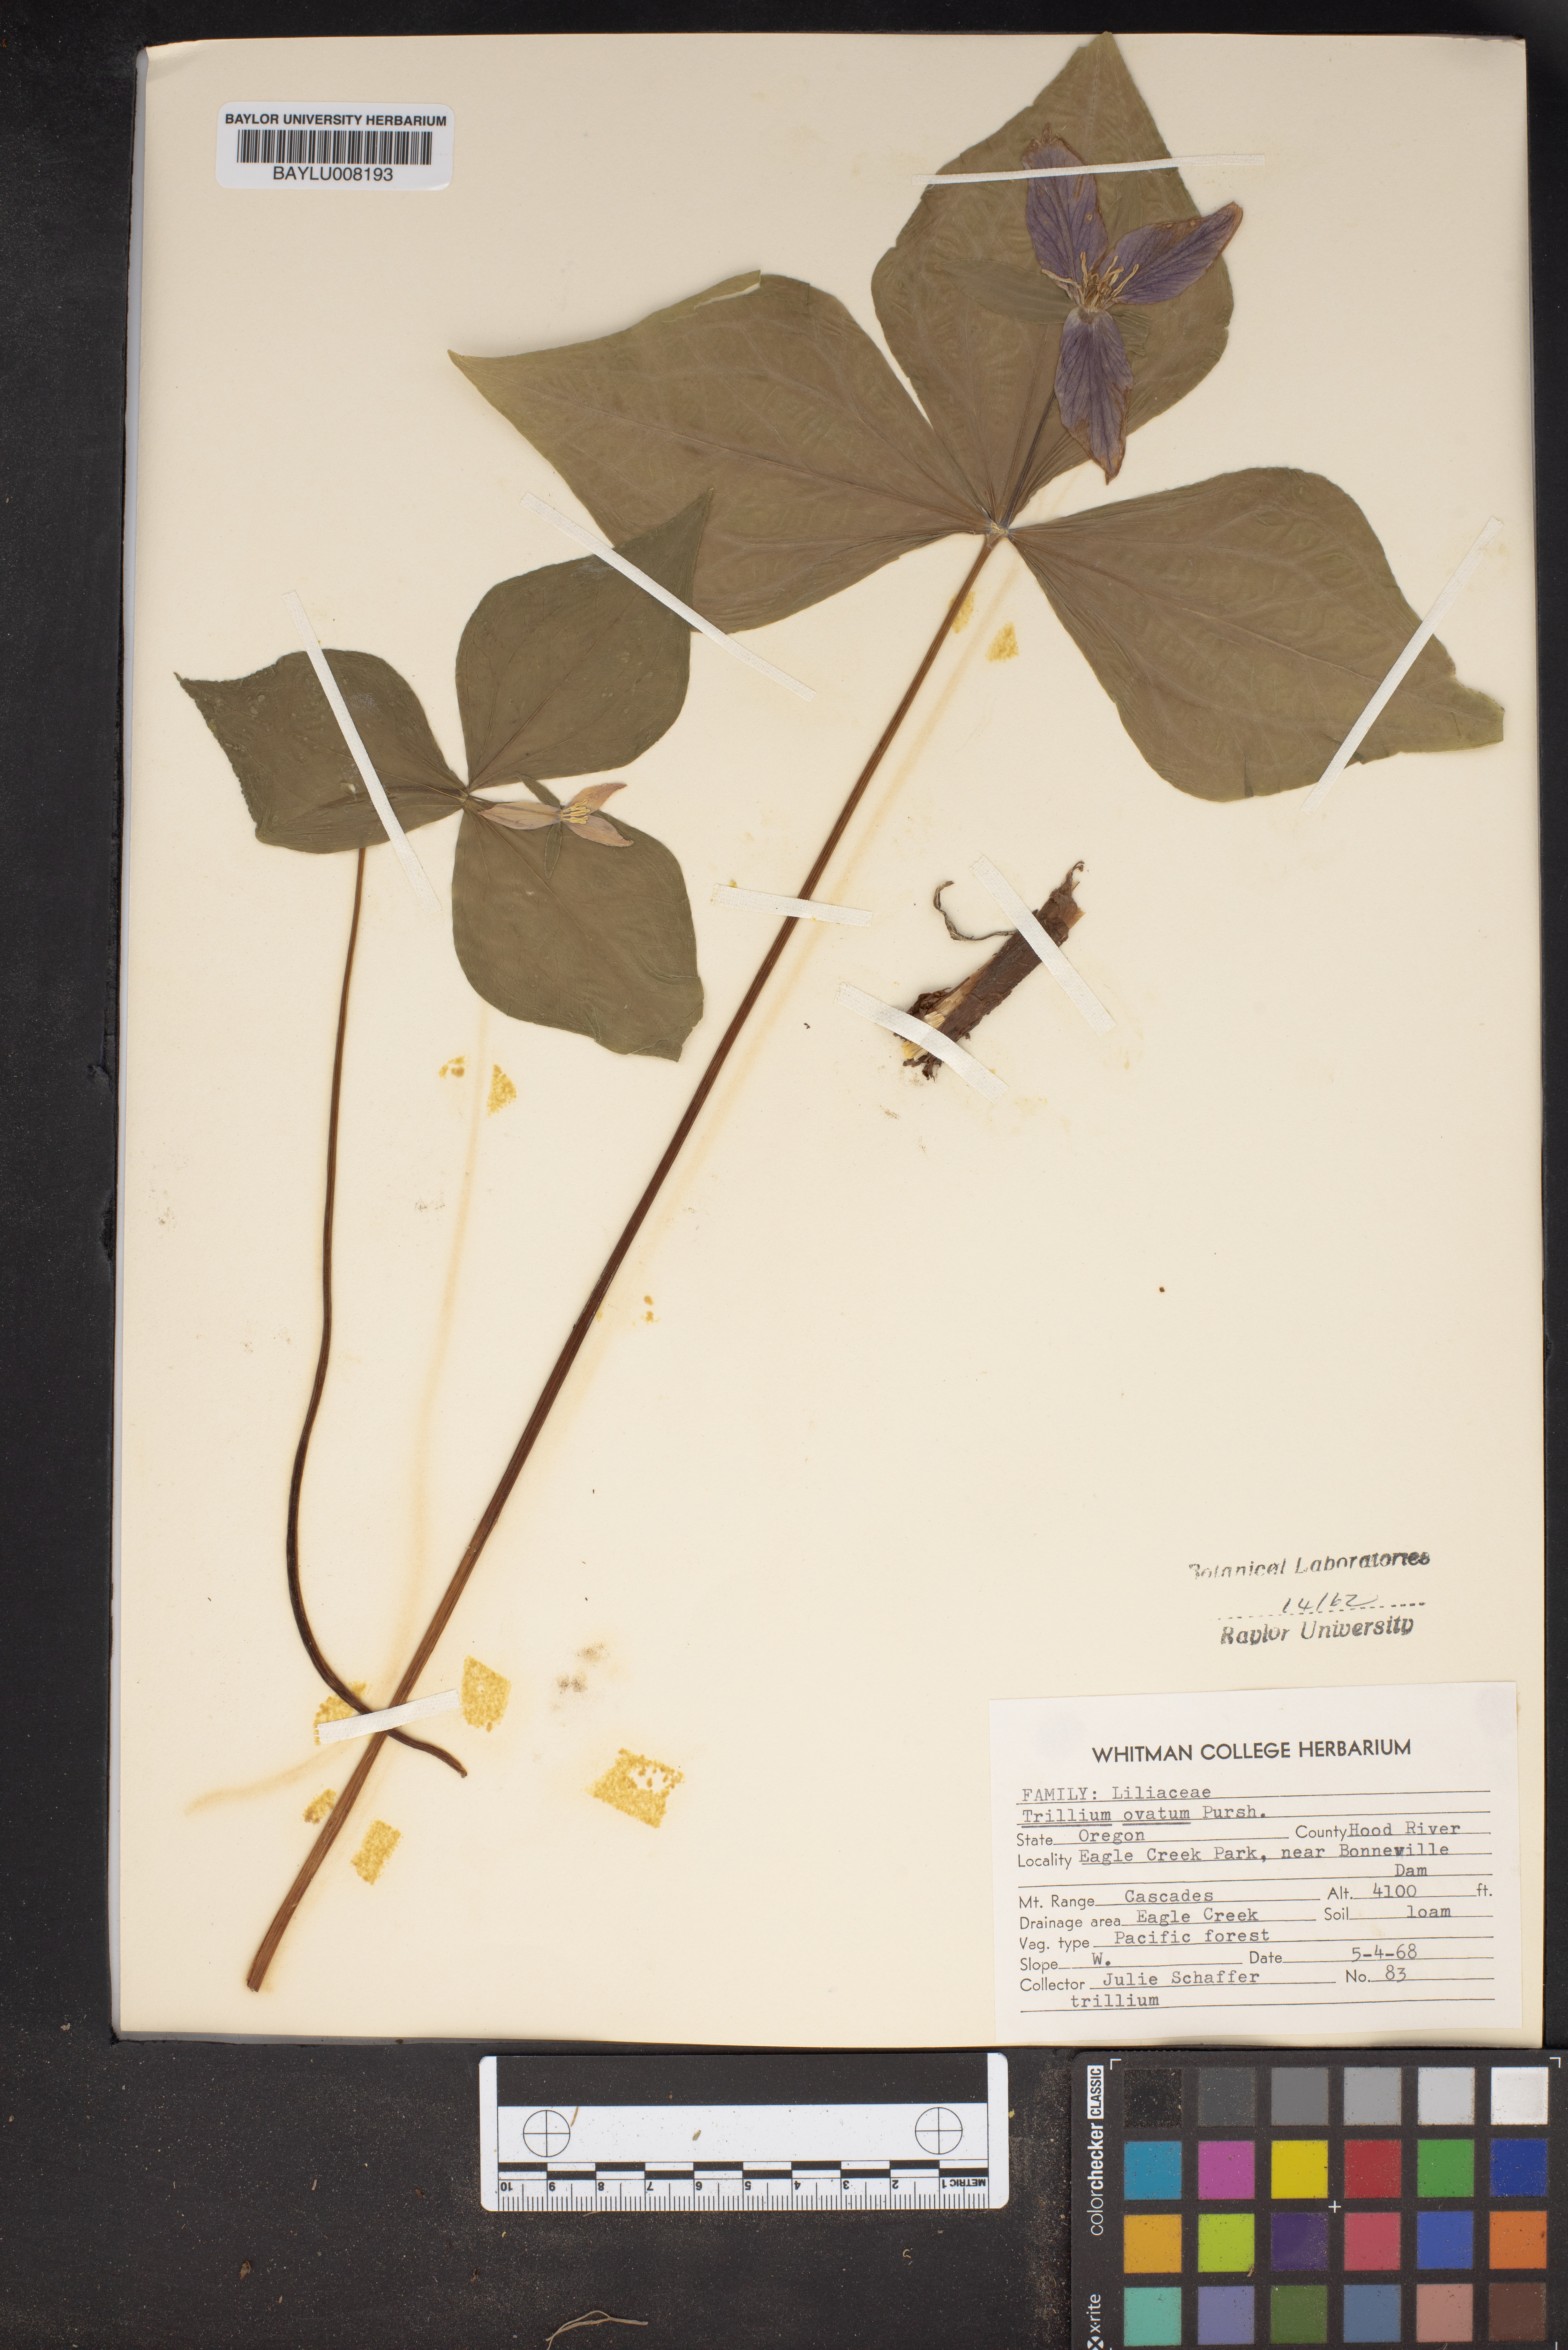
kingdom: Plantae
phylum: Tracheophyta
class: Liliopsida
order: Liliales
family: Melanthiaceae
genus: Trillium
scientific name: Trillium ovatum
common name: Pacific trillium
